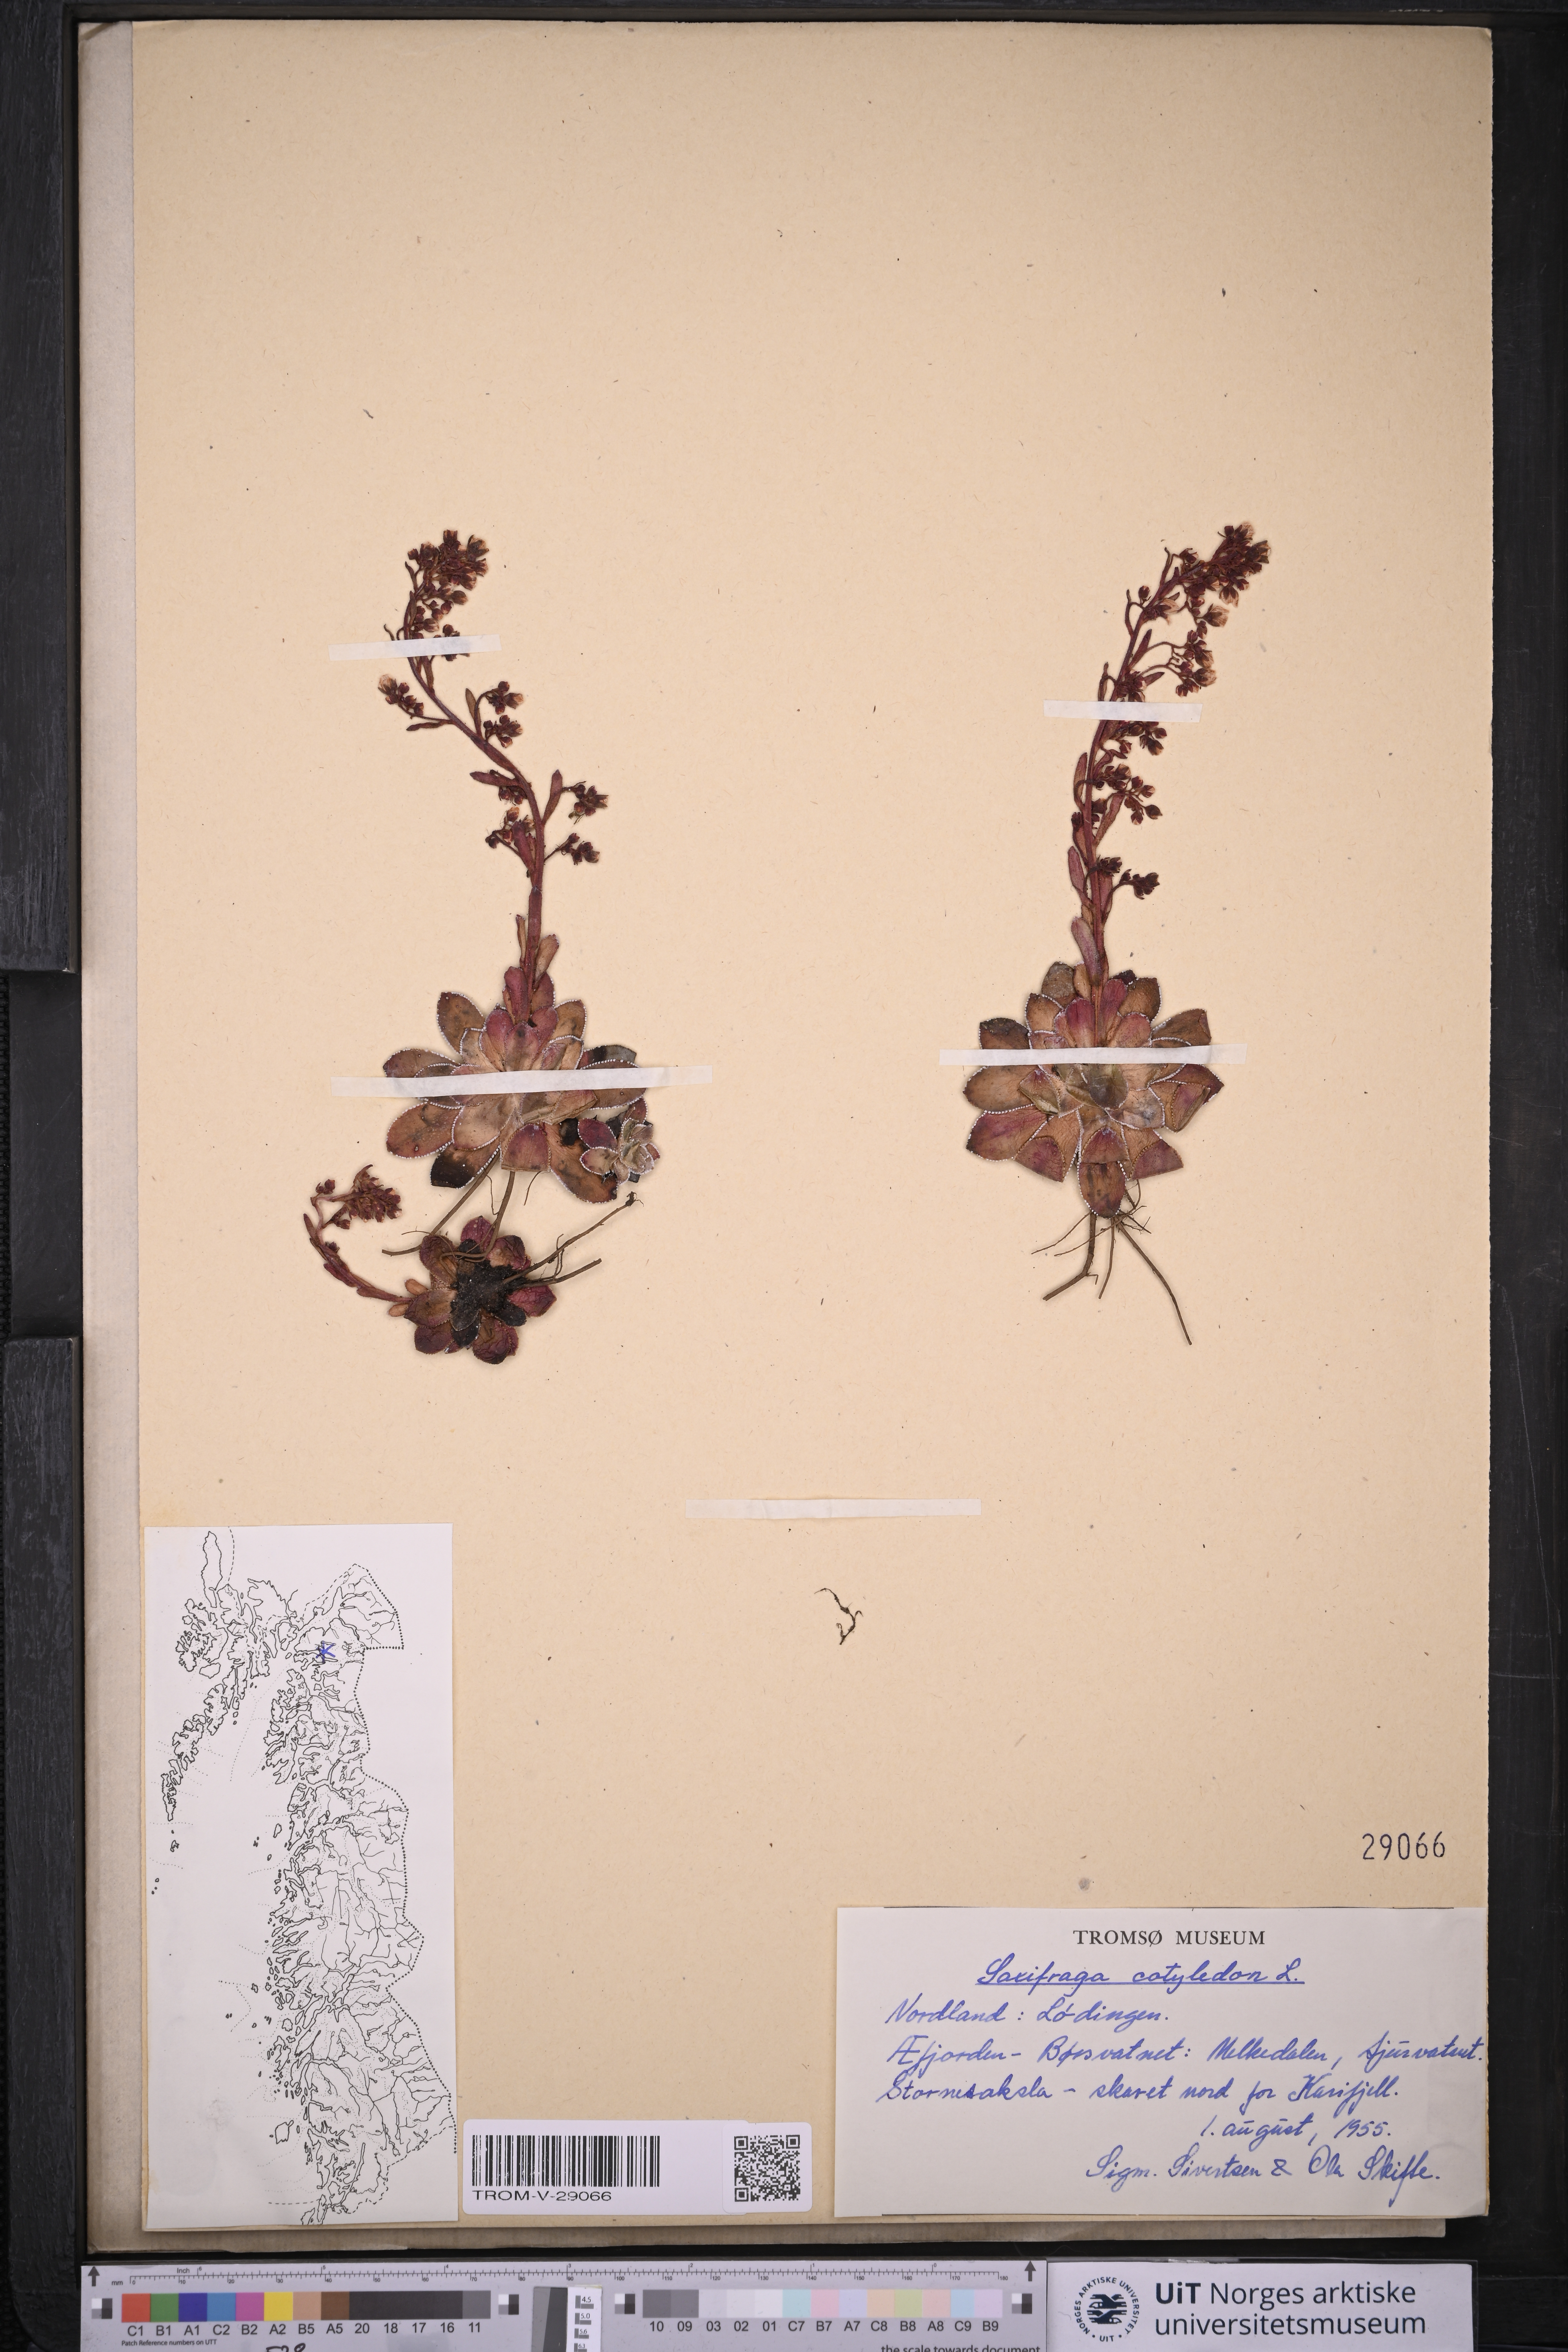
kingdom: Plantae
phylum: Tracheophyta
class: Magnoliopsida
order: Saxifragales
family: Saxifragaceae
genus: Saxifraga
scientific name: Saxifraga cotyledon
